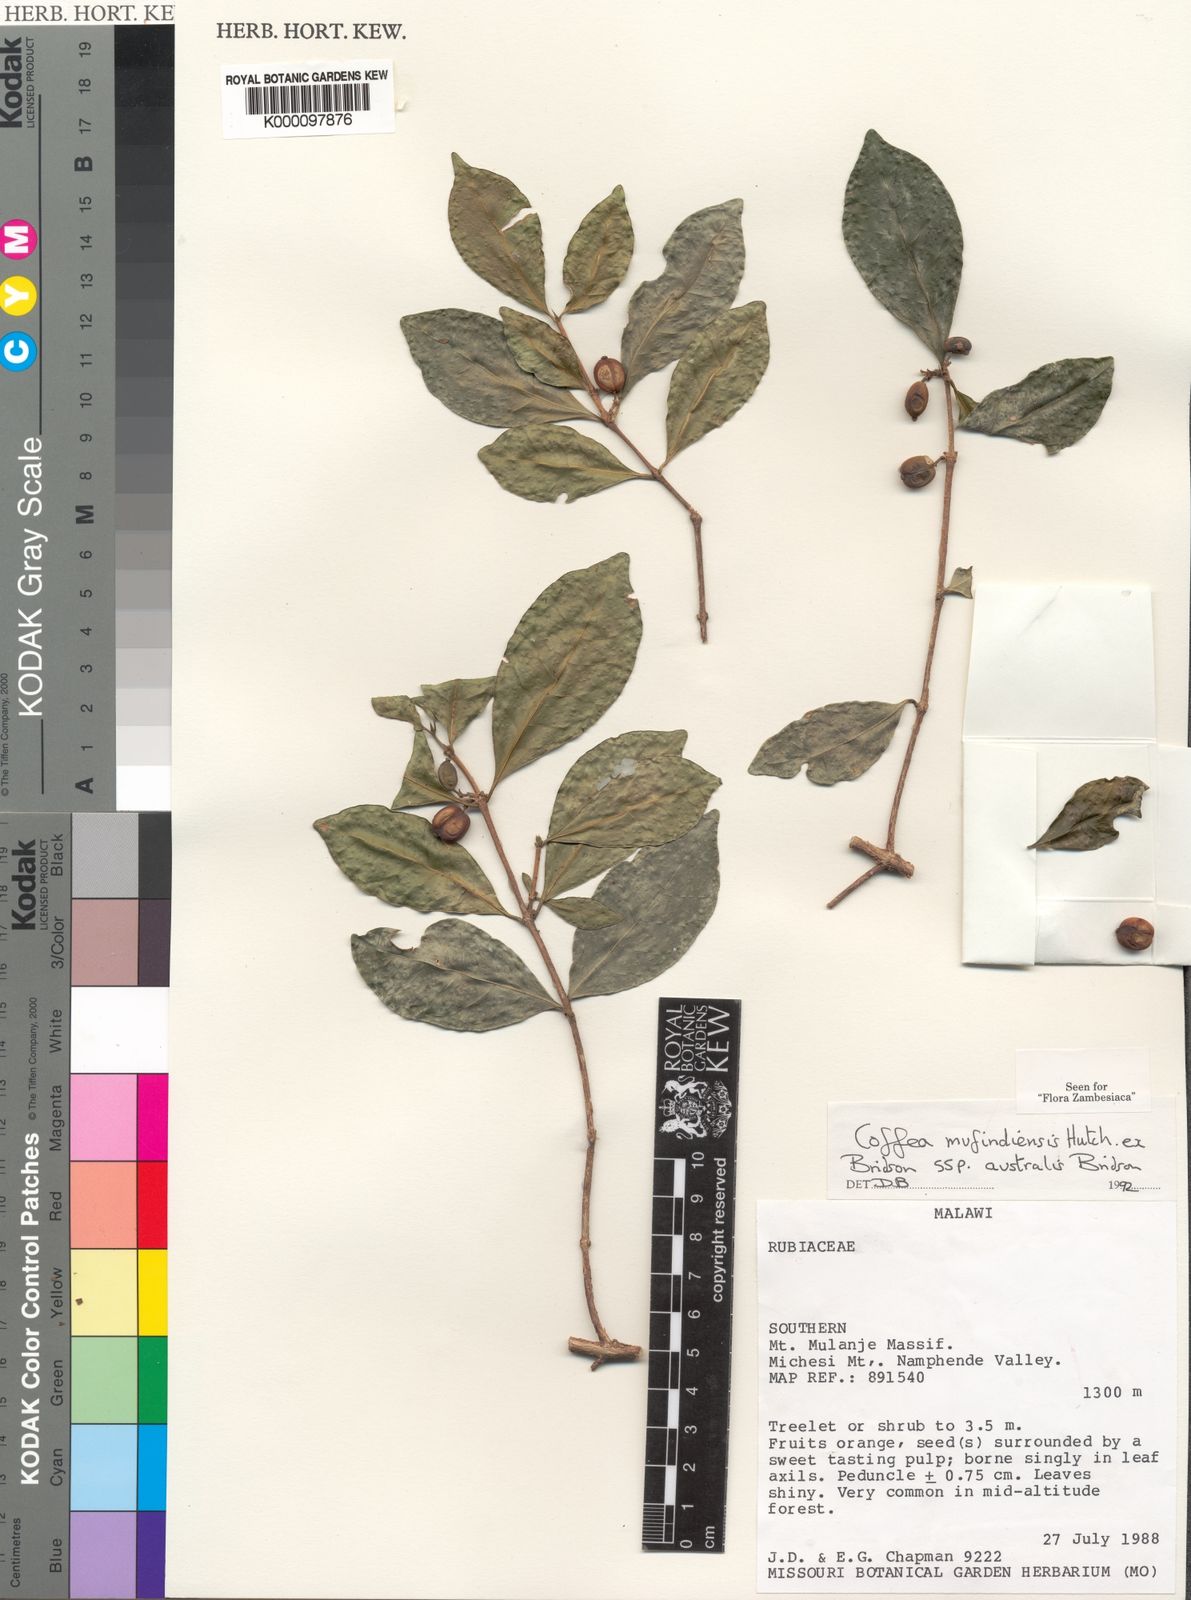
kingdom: Plantae
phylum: Tracheophyta
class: Magnoliopsida
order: Gentianales
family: Rubiaceae
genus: Coffea
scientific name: Coffea mufindiensis
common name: Wild coffee
